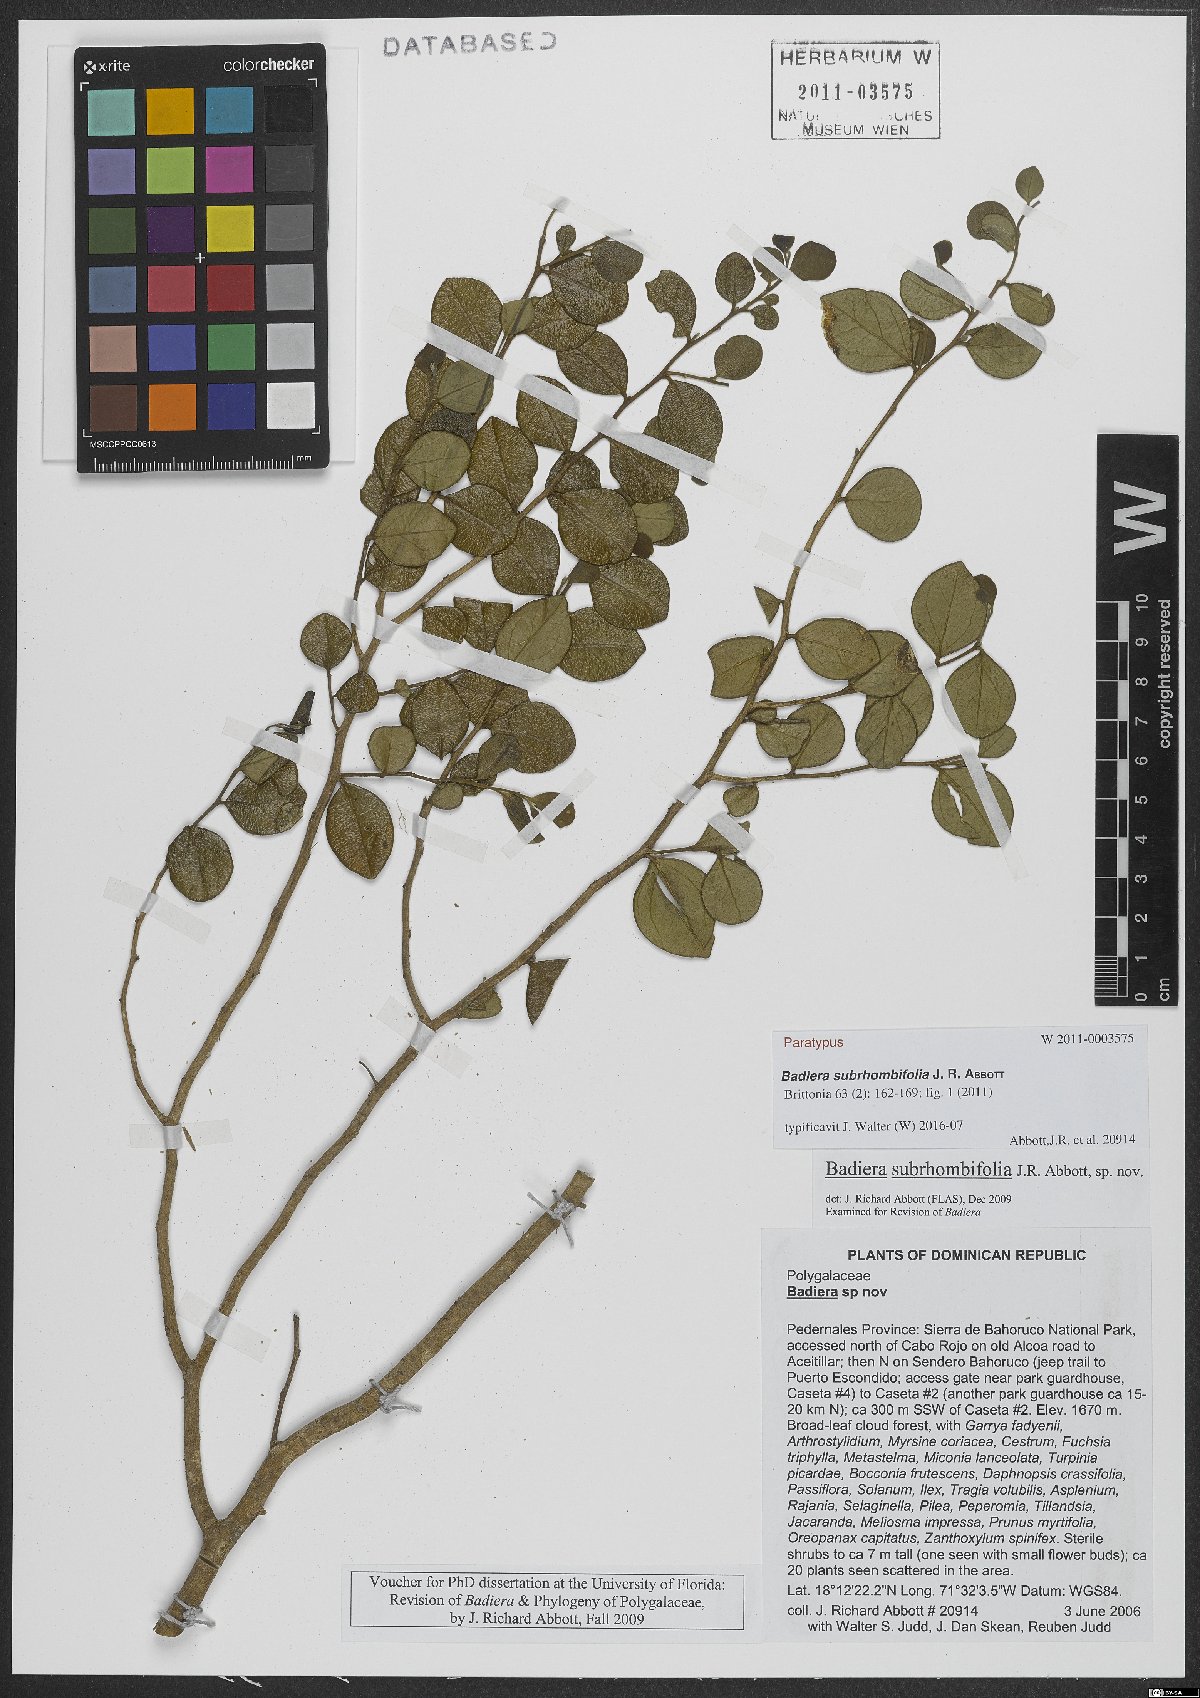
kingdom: Plantae
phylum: Tracheophyta
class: Magnoliopsida
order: Fabales
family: Polygalaceae
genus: Badiera
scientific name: Badiera subrhombifolia
